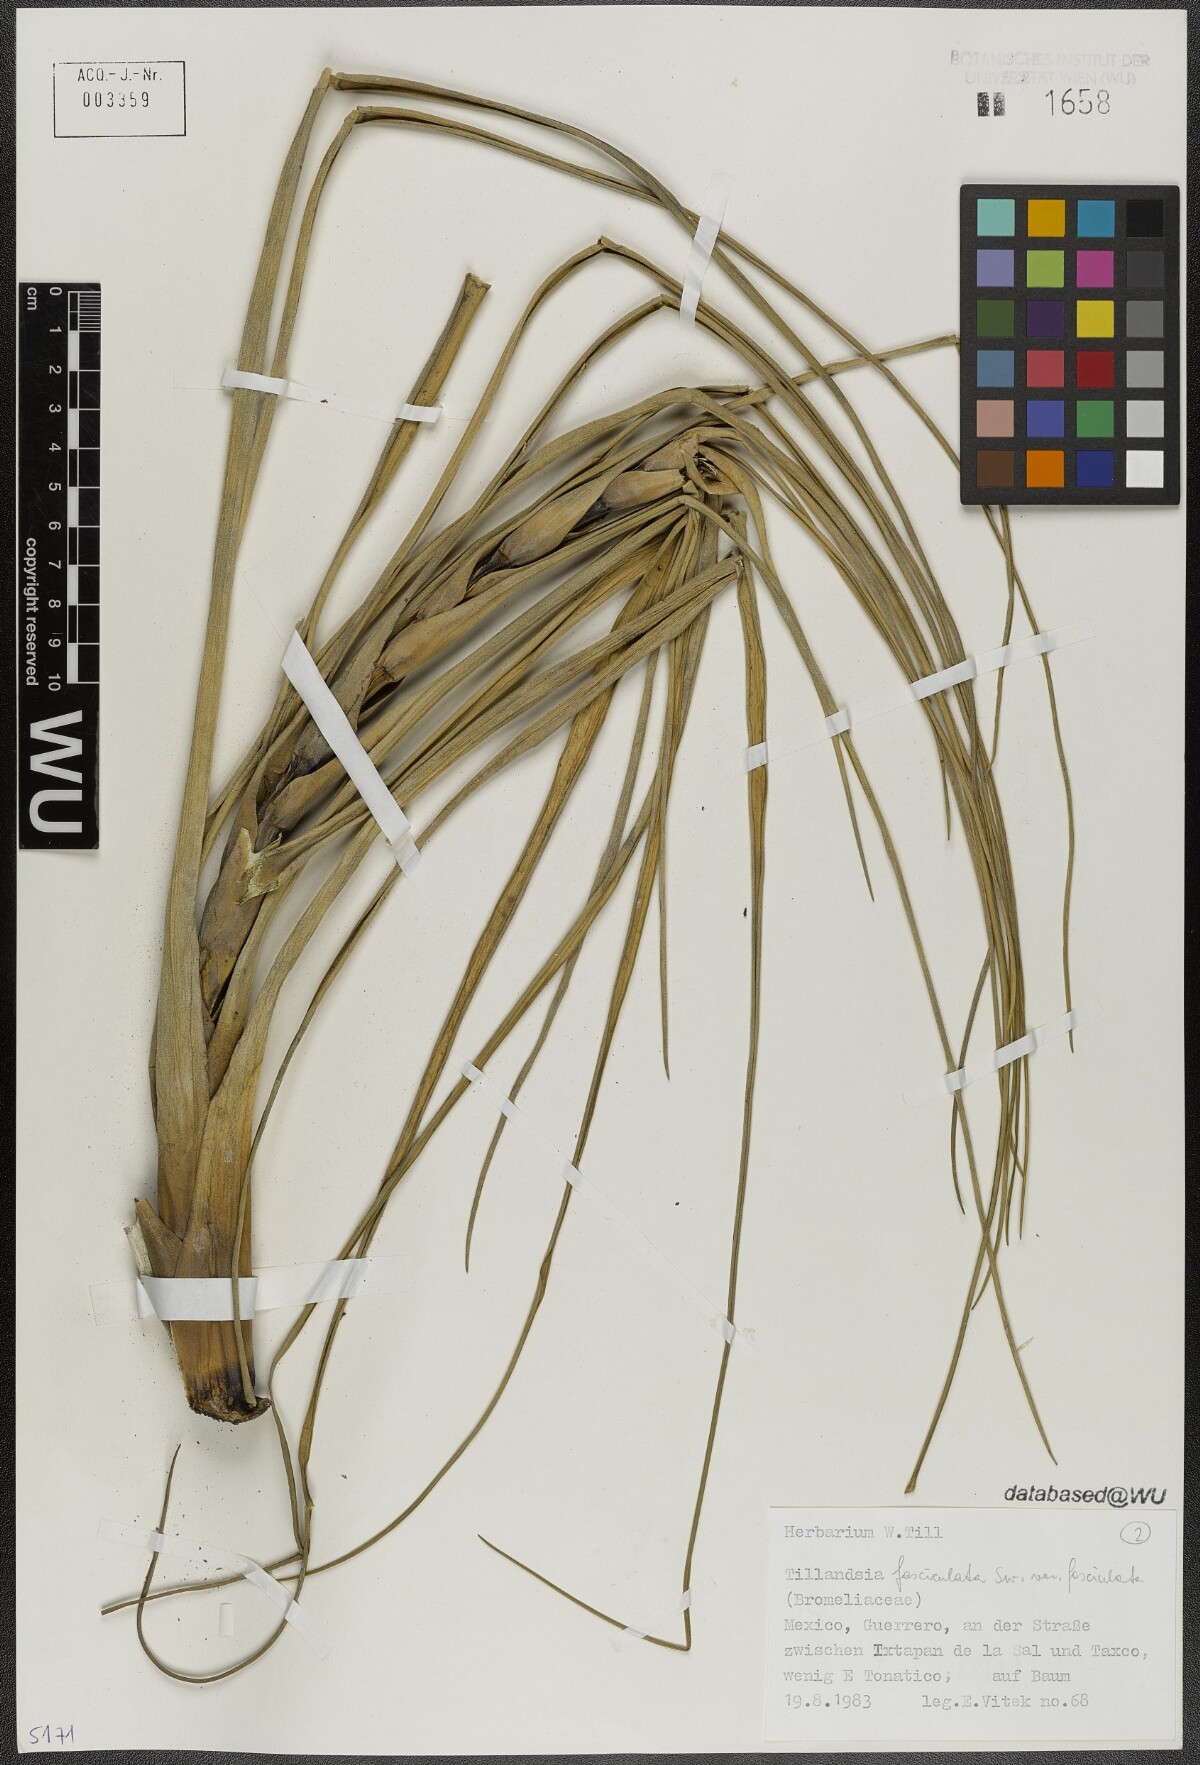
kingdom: Plantae
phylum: Tracheophyta
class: Liliopsida
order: Poales
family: Bromeliaceae
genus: Tillandsia
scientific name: Tillandsia fasciculata
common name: Giant airplant
